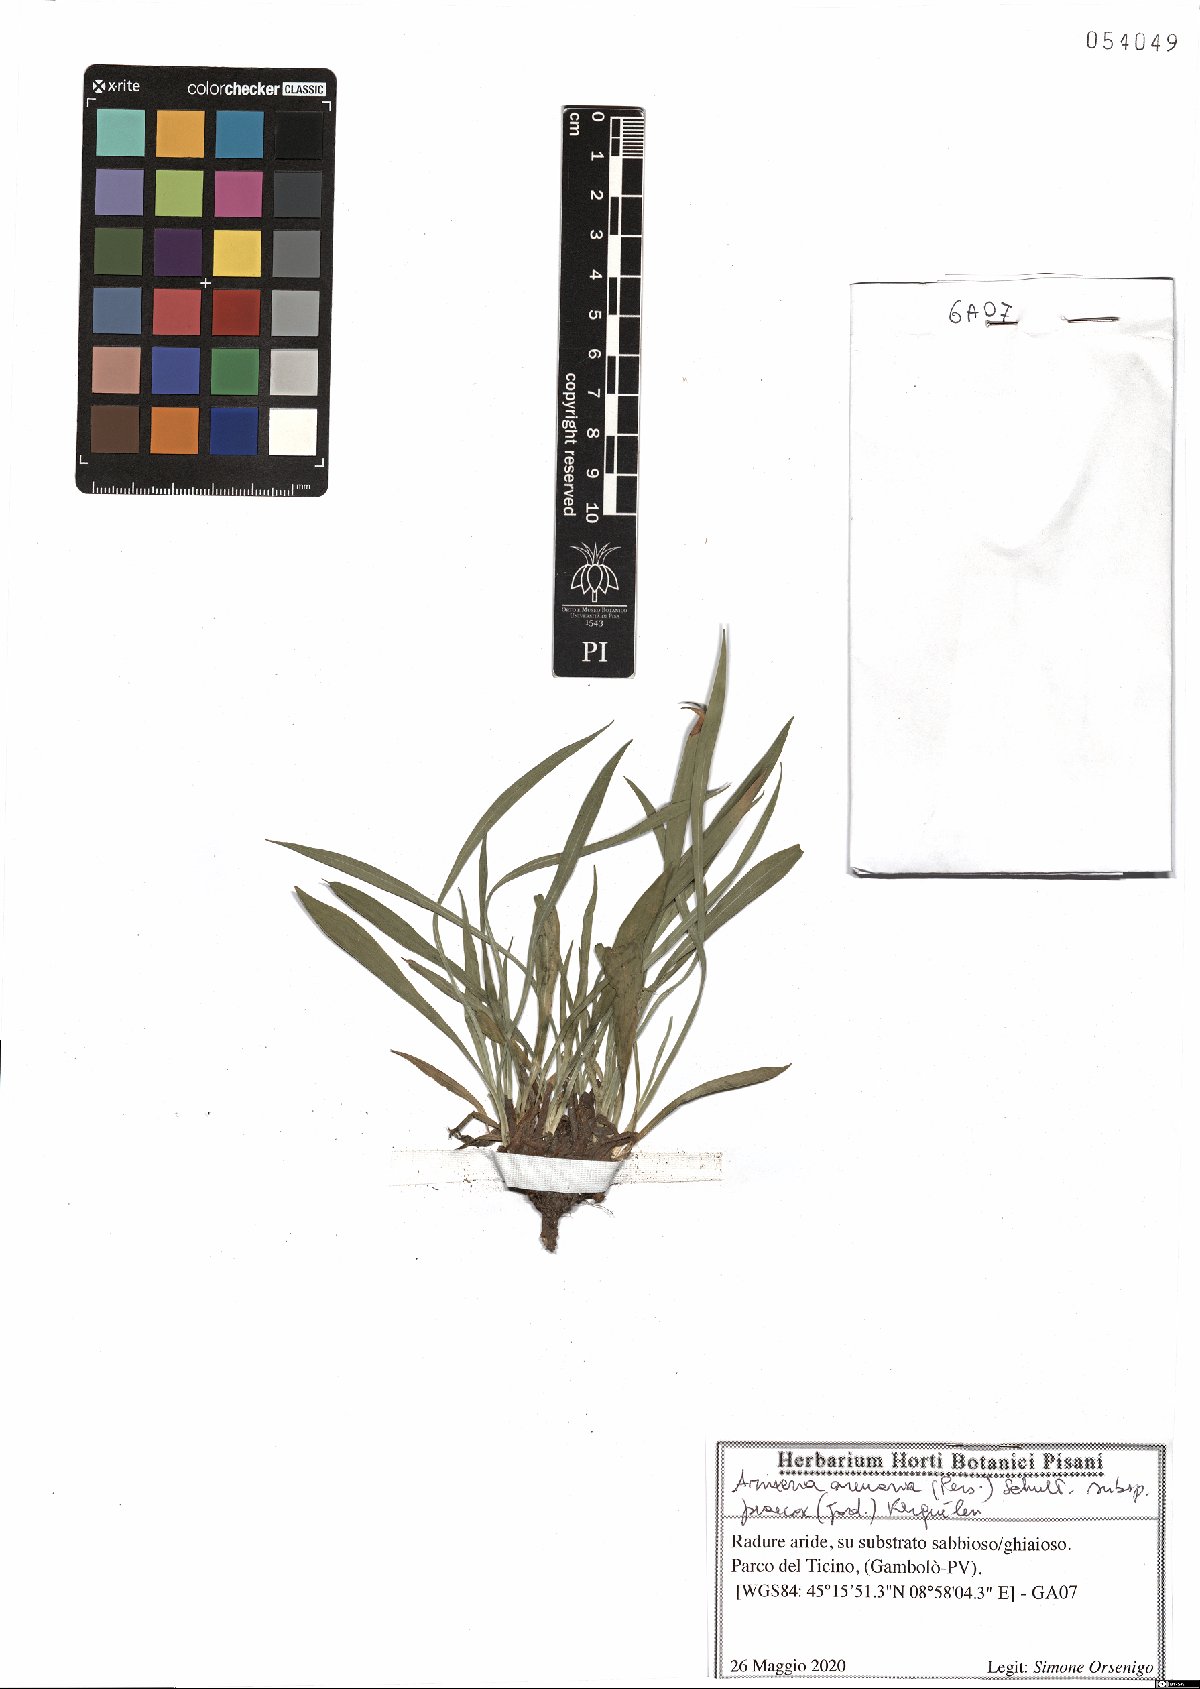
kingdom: Plantae
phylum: Tracheophyta
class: Magnoliopsida
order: Caryophyllales
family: Plumbaginaceae
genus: Armeria
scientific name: Armeria arenaria
